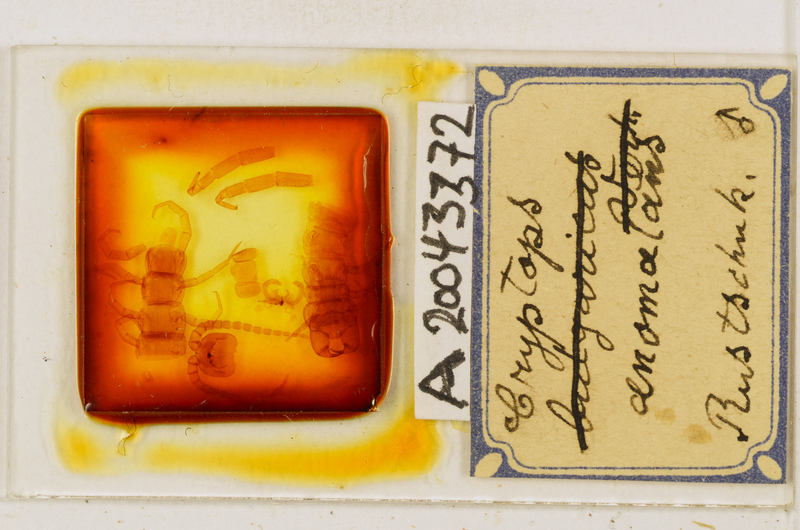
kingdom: Animalia
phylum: Arthropoda
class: Chilopoda
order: Scolopendromorpha
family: Cryptopidae
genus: Cryptops
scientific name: Cryptops anomalans
